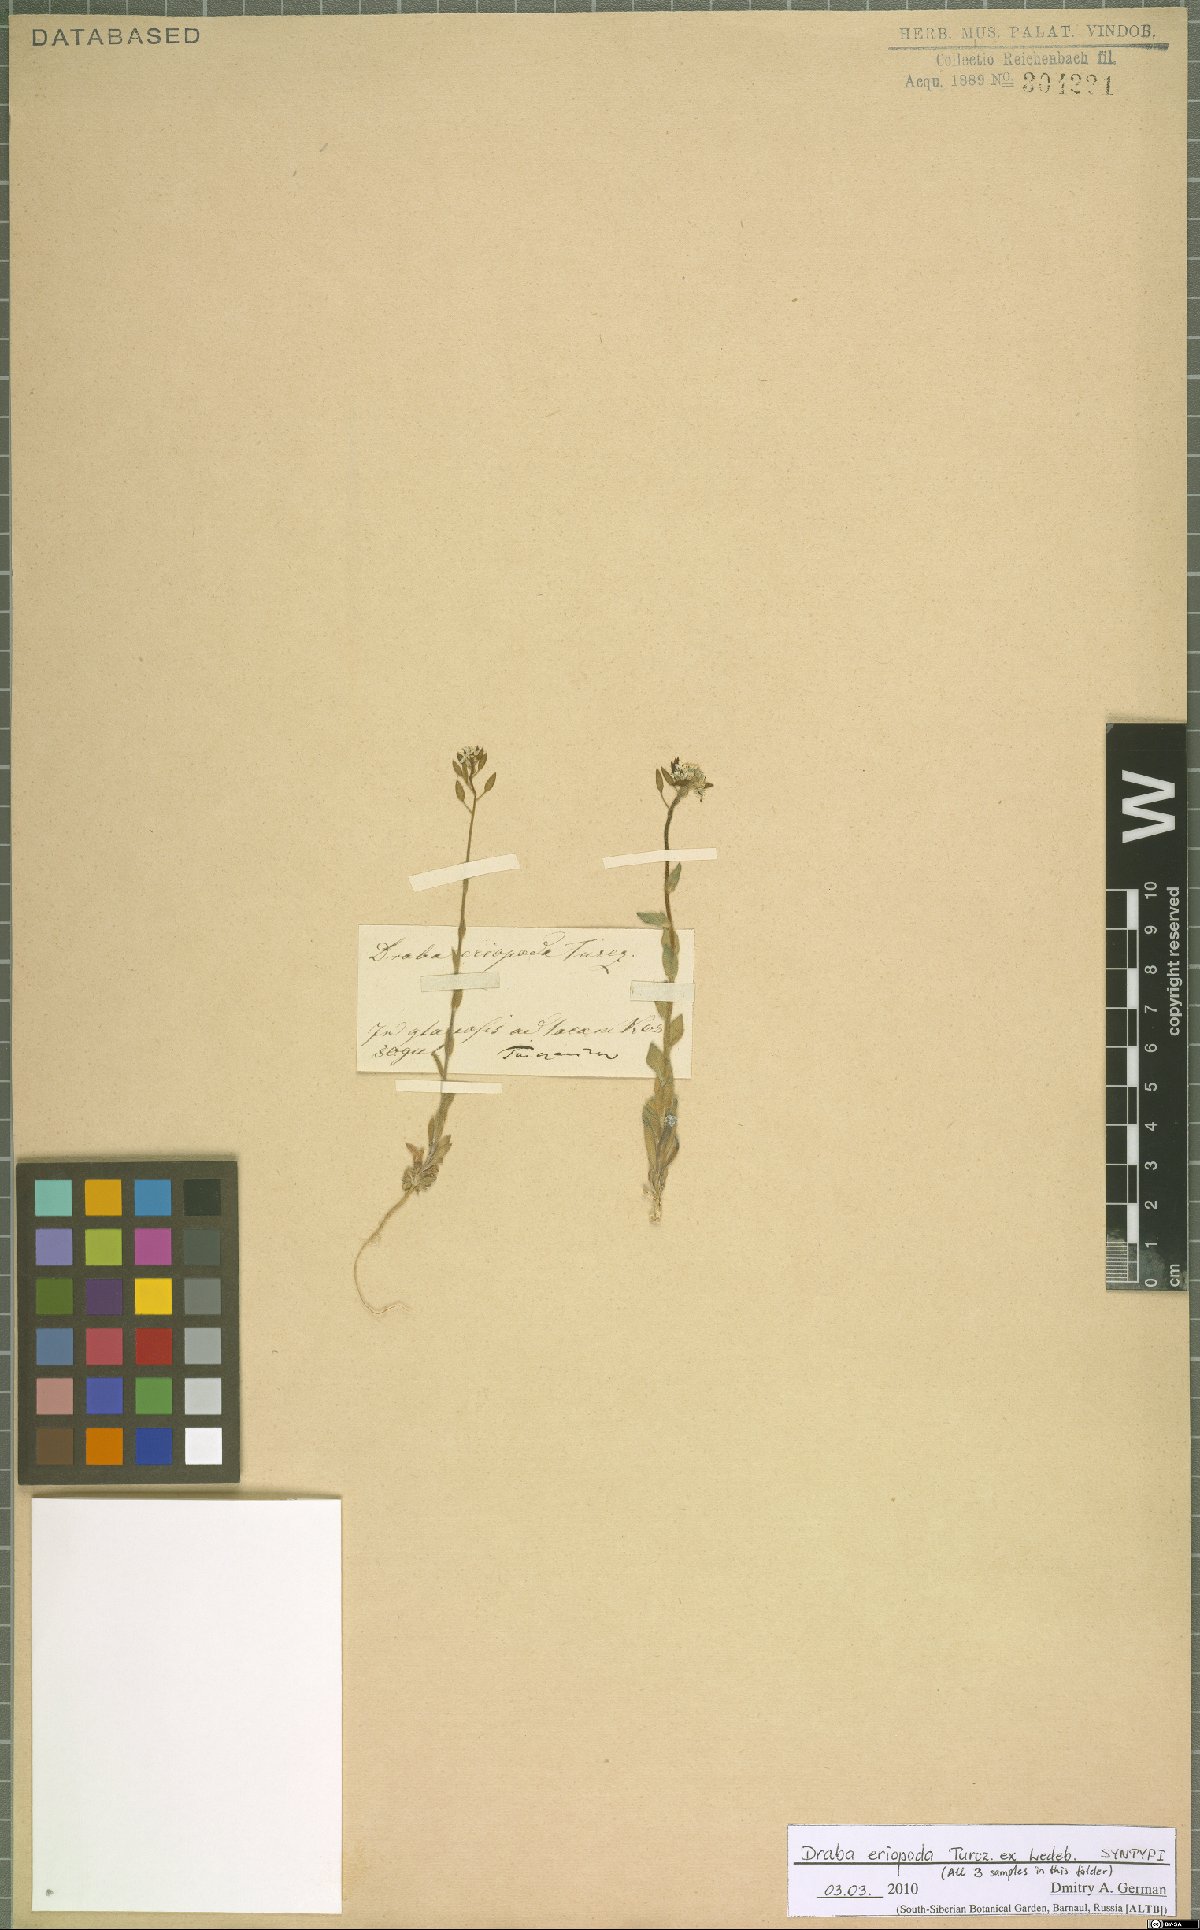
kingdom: Plantae
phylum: Tracheophyta
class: Magnoliopsida
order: Brassicales
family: Brassicaceae
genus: Draba
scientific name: Draba eriopoda
